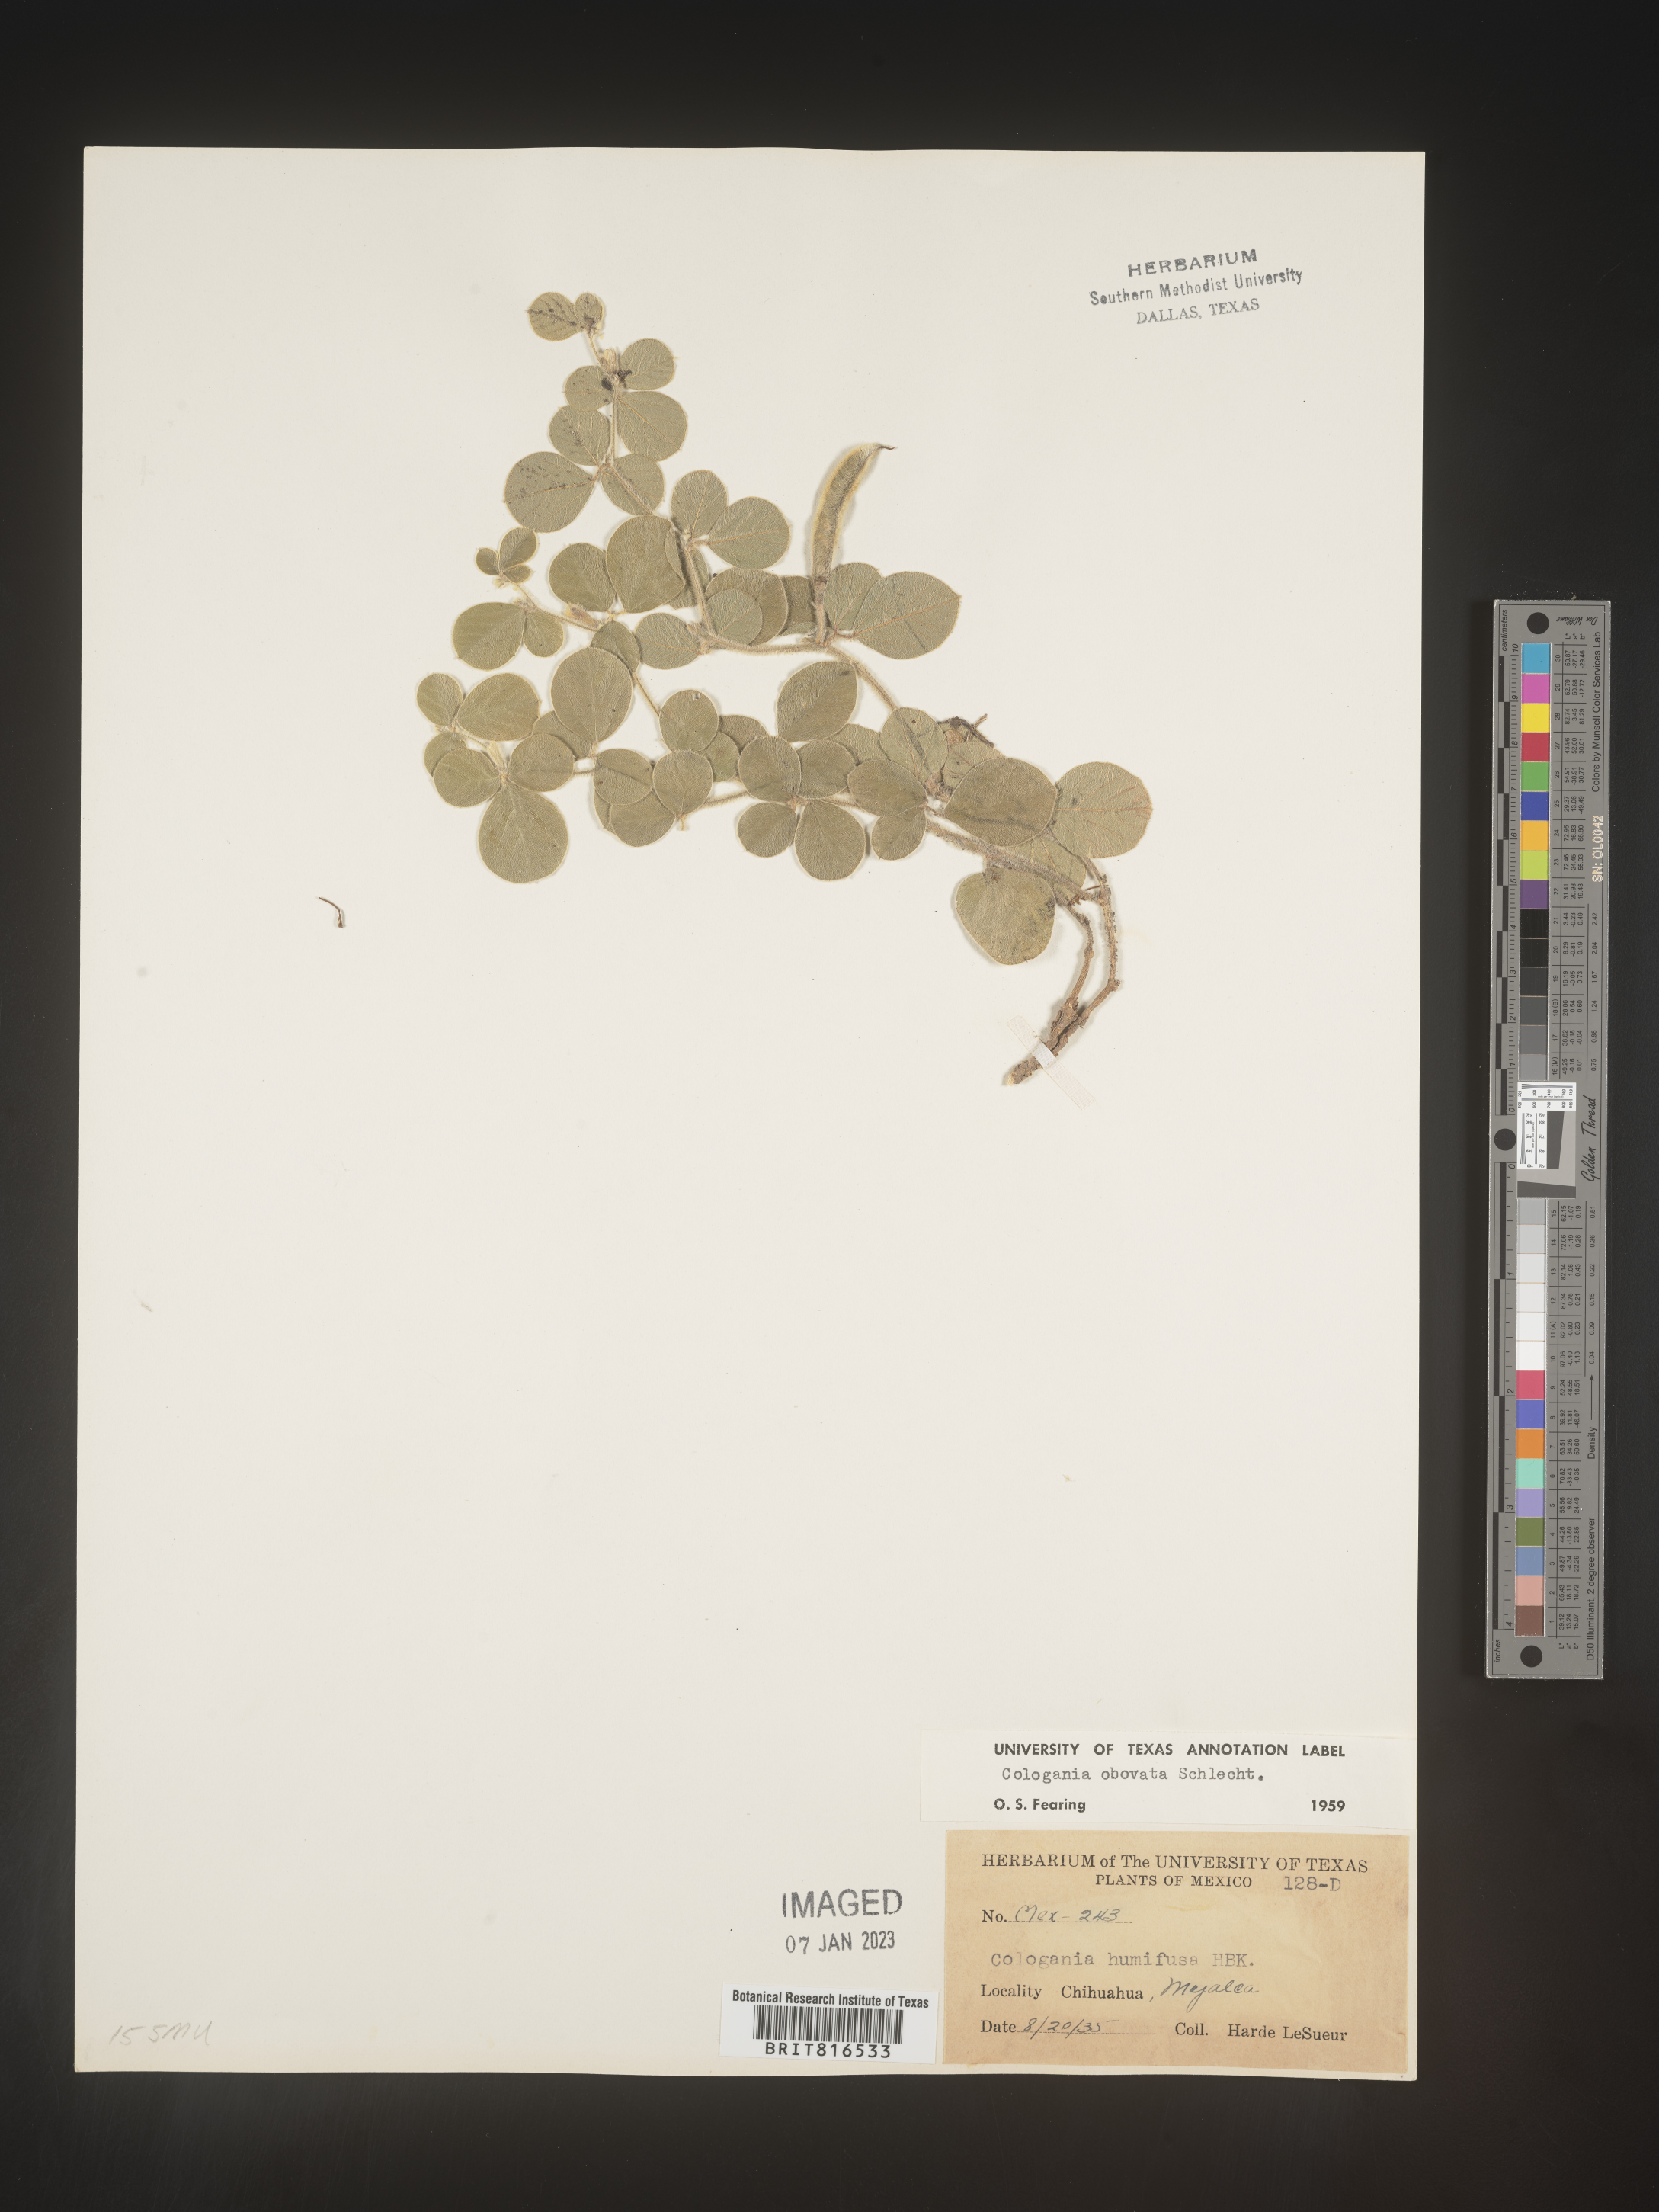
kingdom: Plantae
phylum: Tracheophyta
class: Magnoliopsida
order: Fabales
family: Fabaceae
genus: Cologania
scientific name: Cologania obovata
